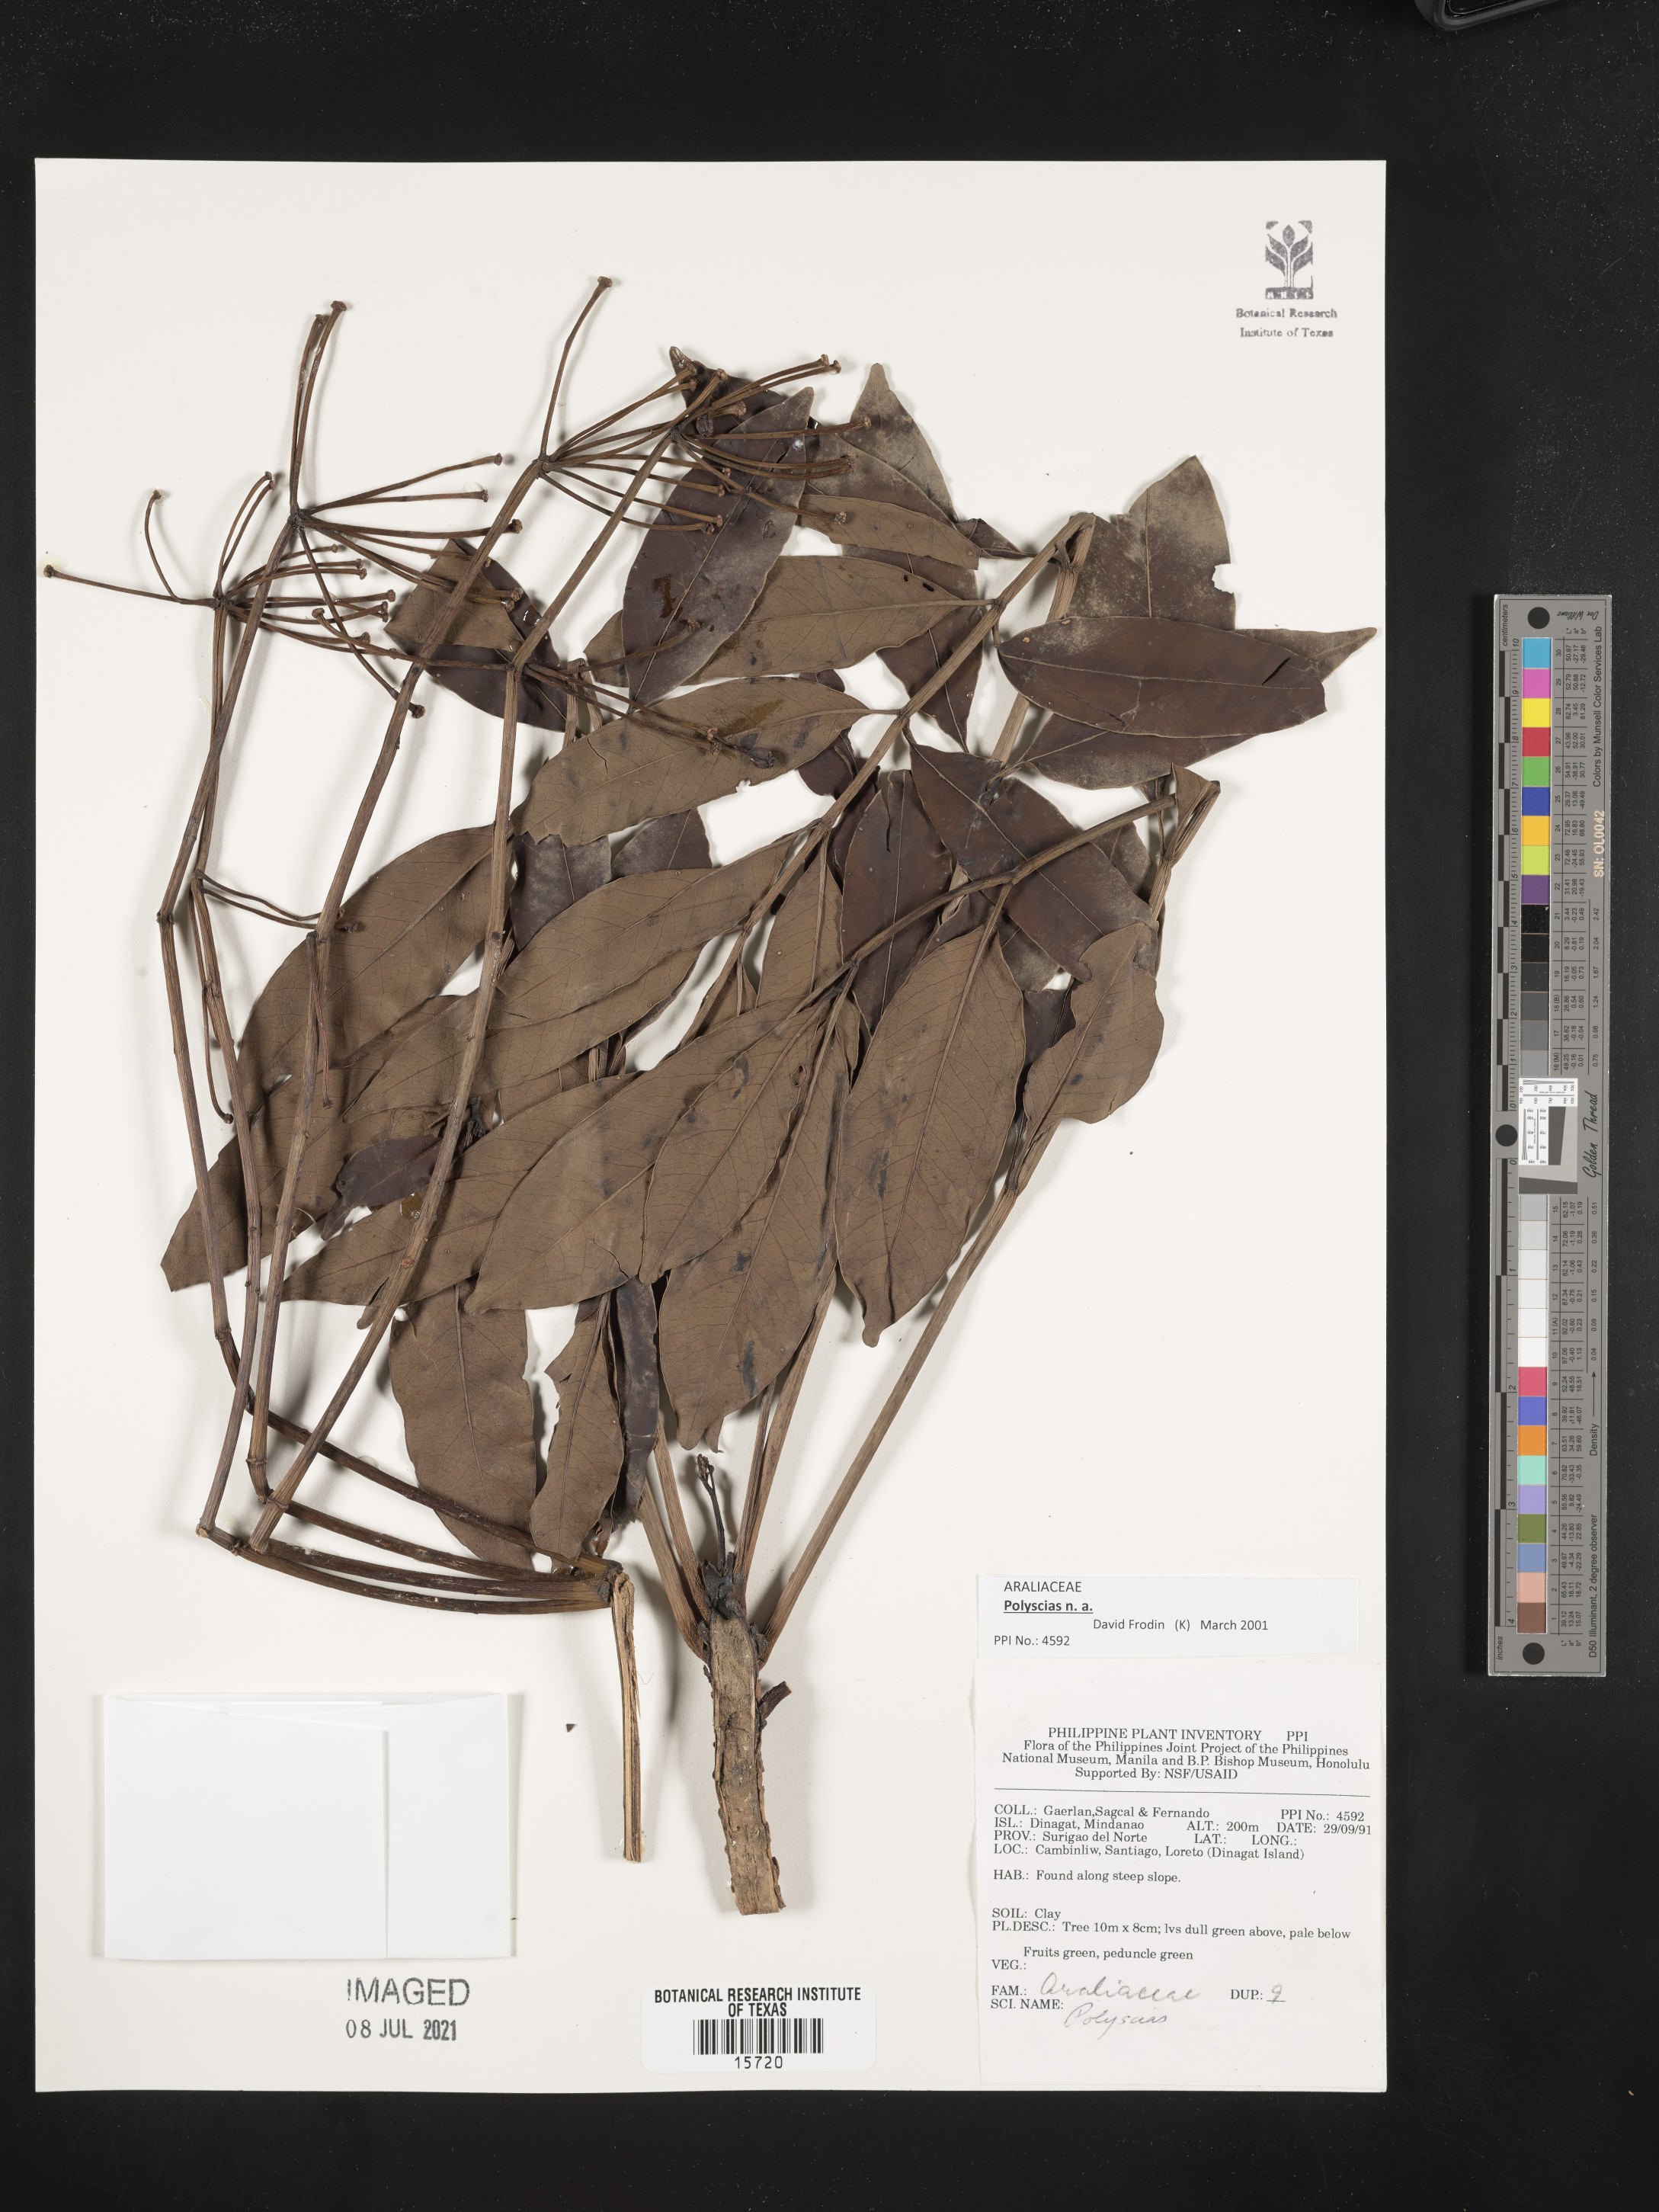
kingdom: Plantae
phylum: Tracheophyta
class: Magnoliopsida
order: Apiales
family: Araliaceae
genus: Polyscias
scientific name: Polyscias
